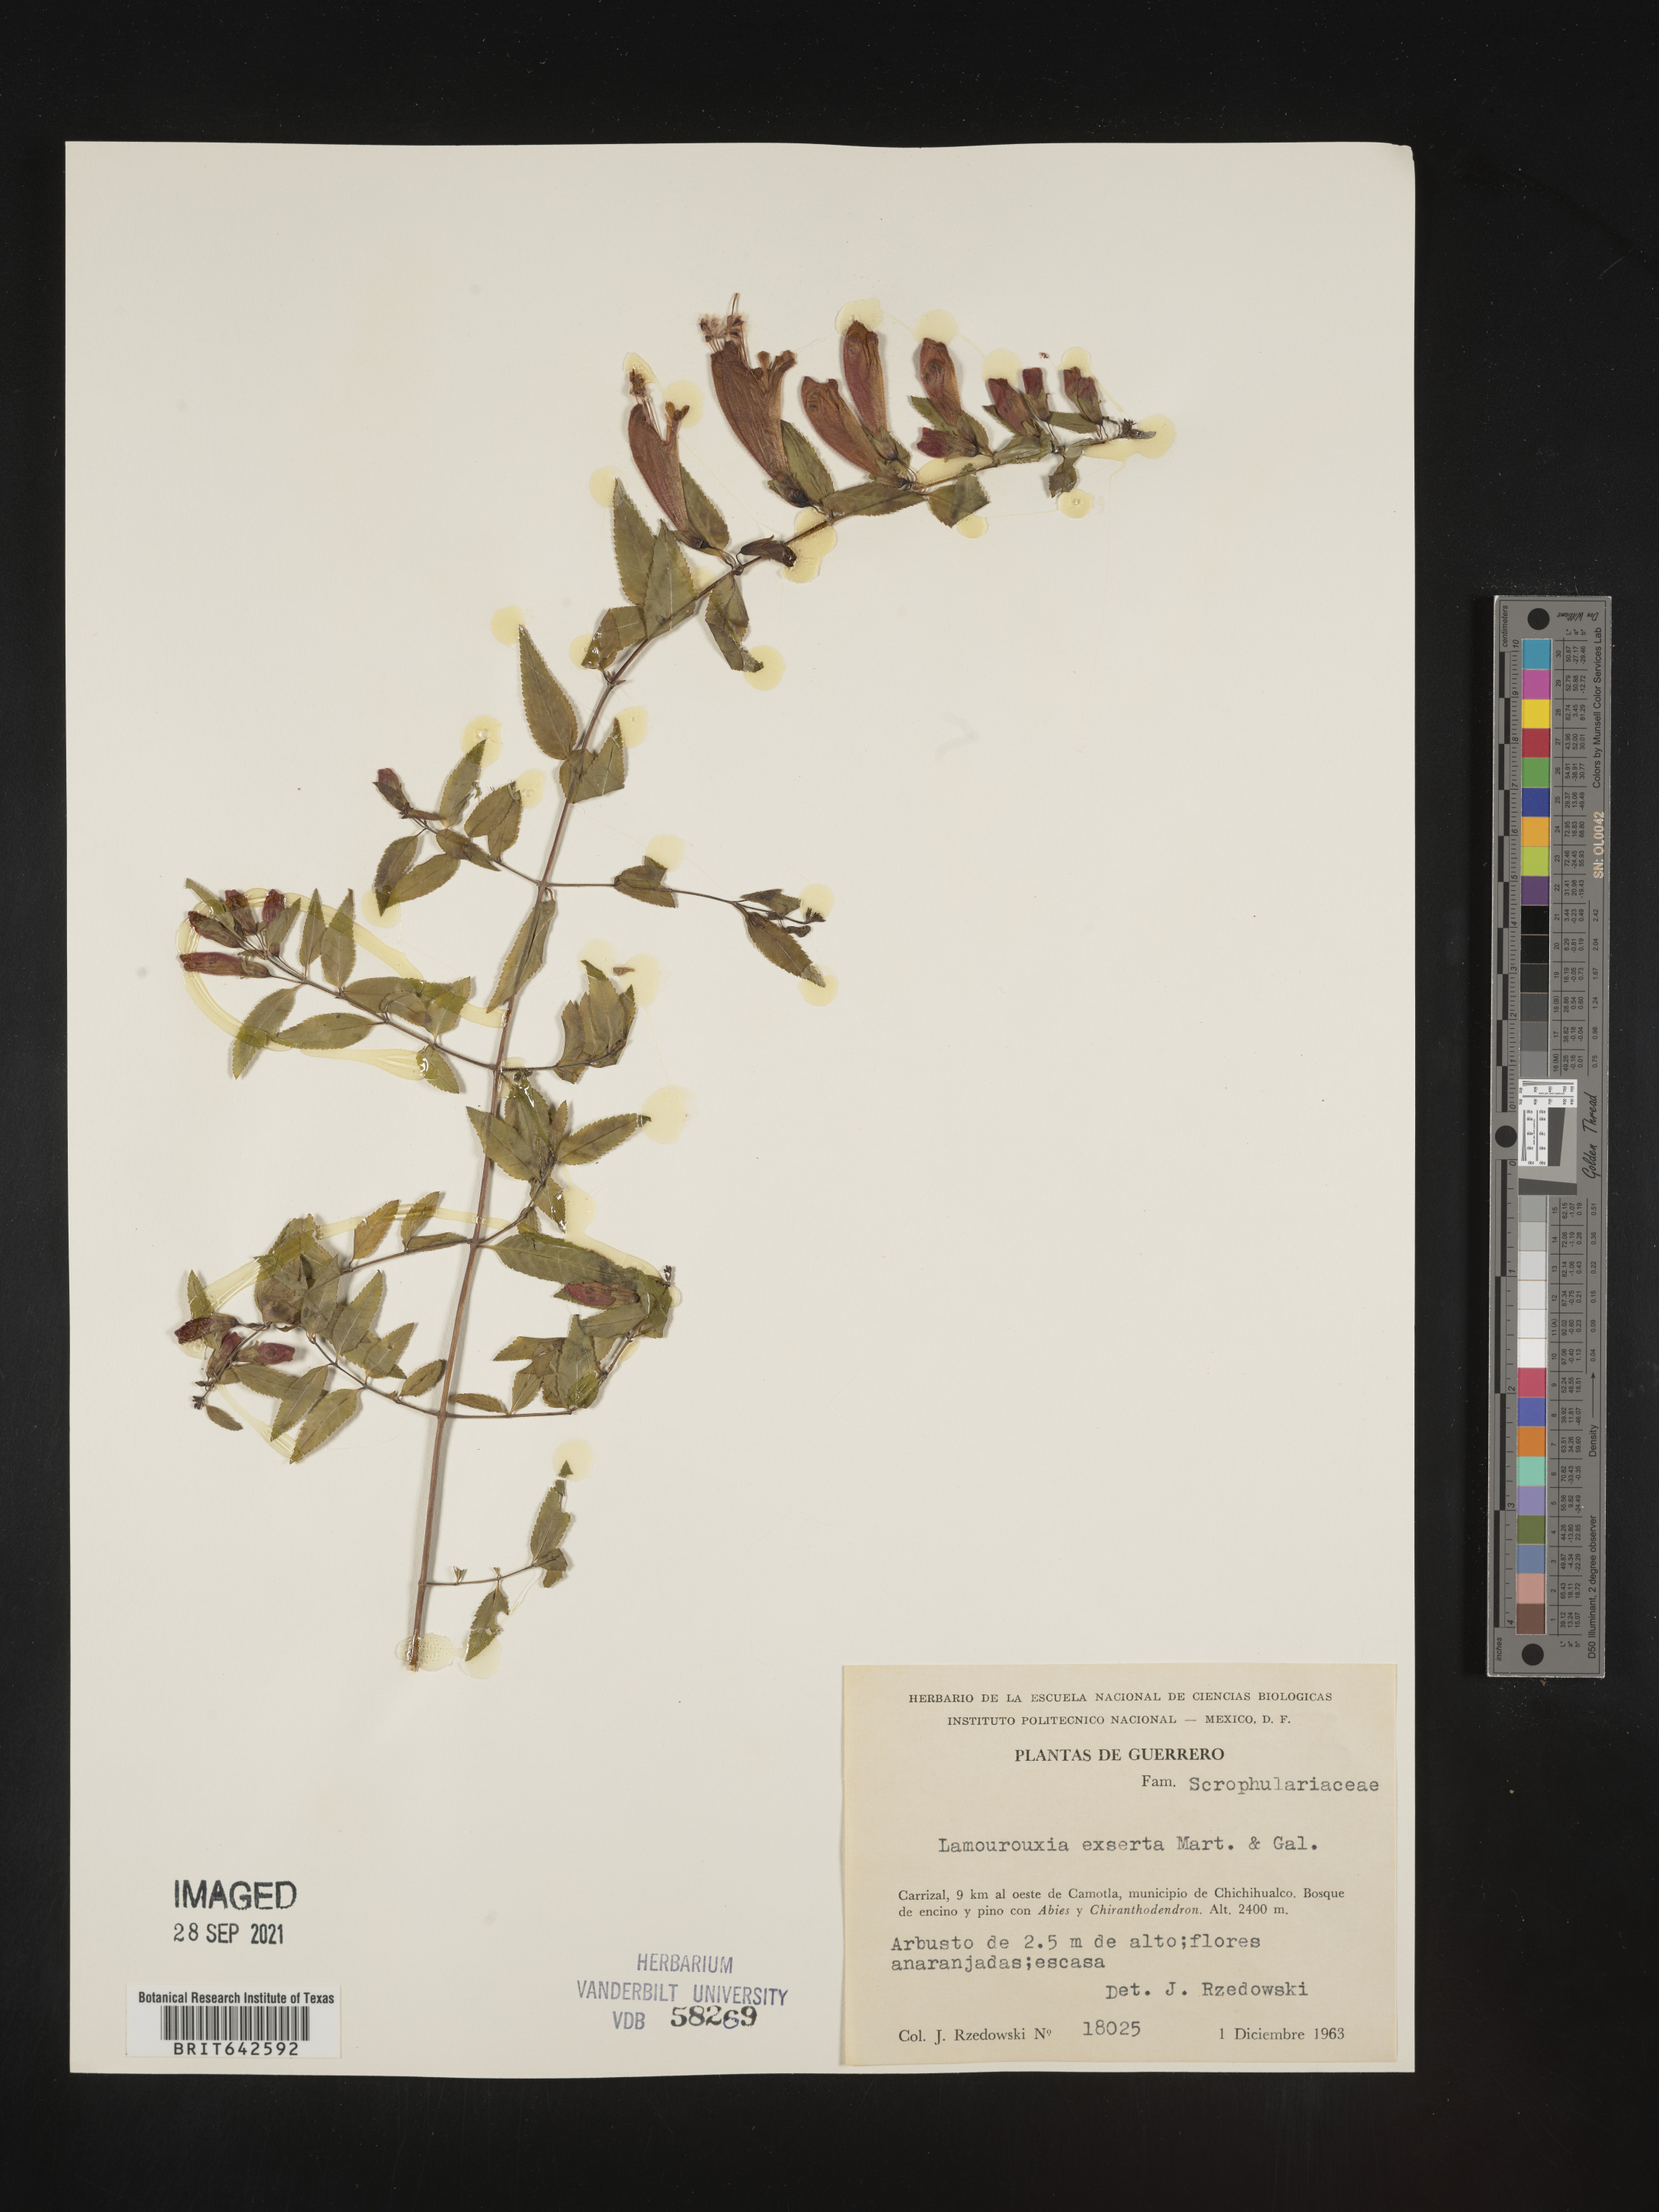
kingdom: Plantae
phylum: Tracheophyta
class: Magnoliopsida
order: Lamiales
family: Orobanchaceae
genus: Lamourouxia
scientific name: Lamourouxia
